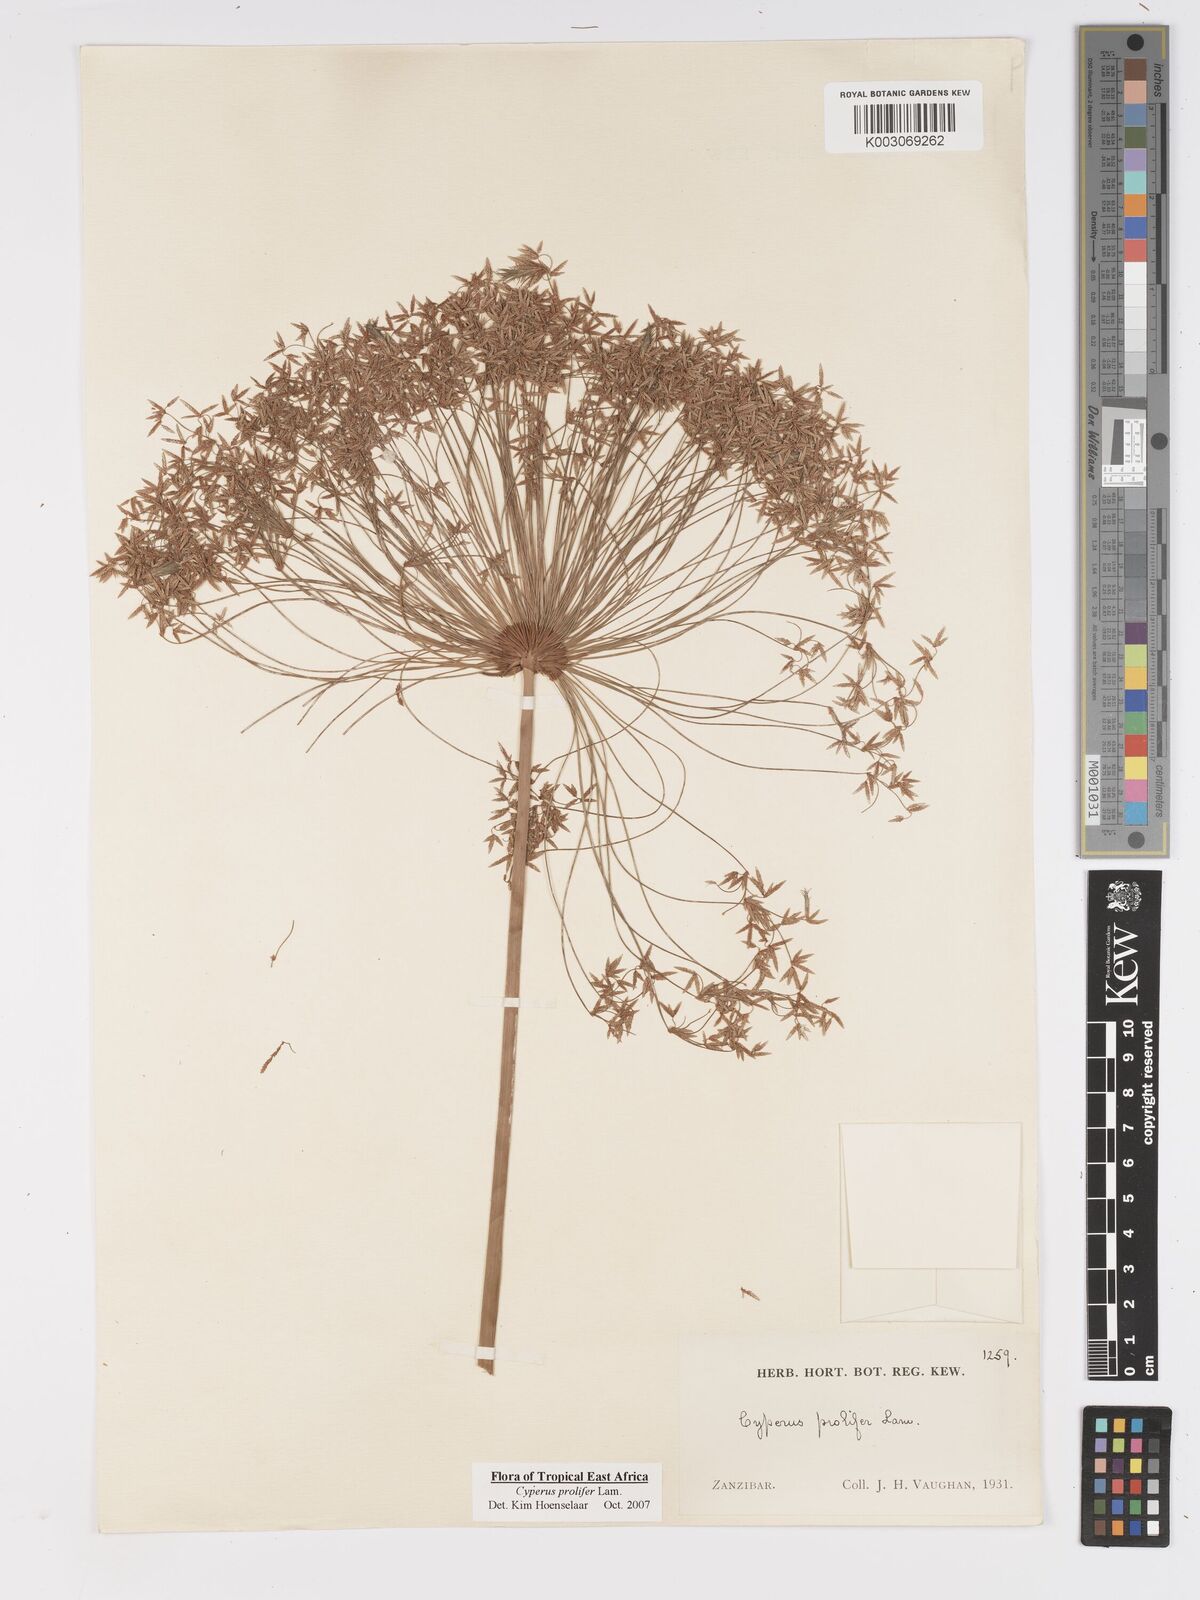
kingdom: Plantae
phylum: Tracheophyta
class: Liliopsida
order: Poales
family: Cyperaceae
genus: Cyperus
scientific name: Cyperus prolifer
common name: Miniature flatsedge
